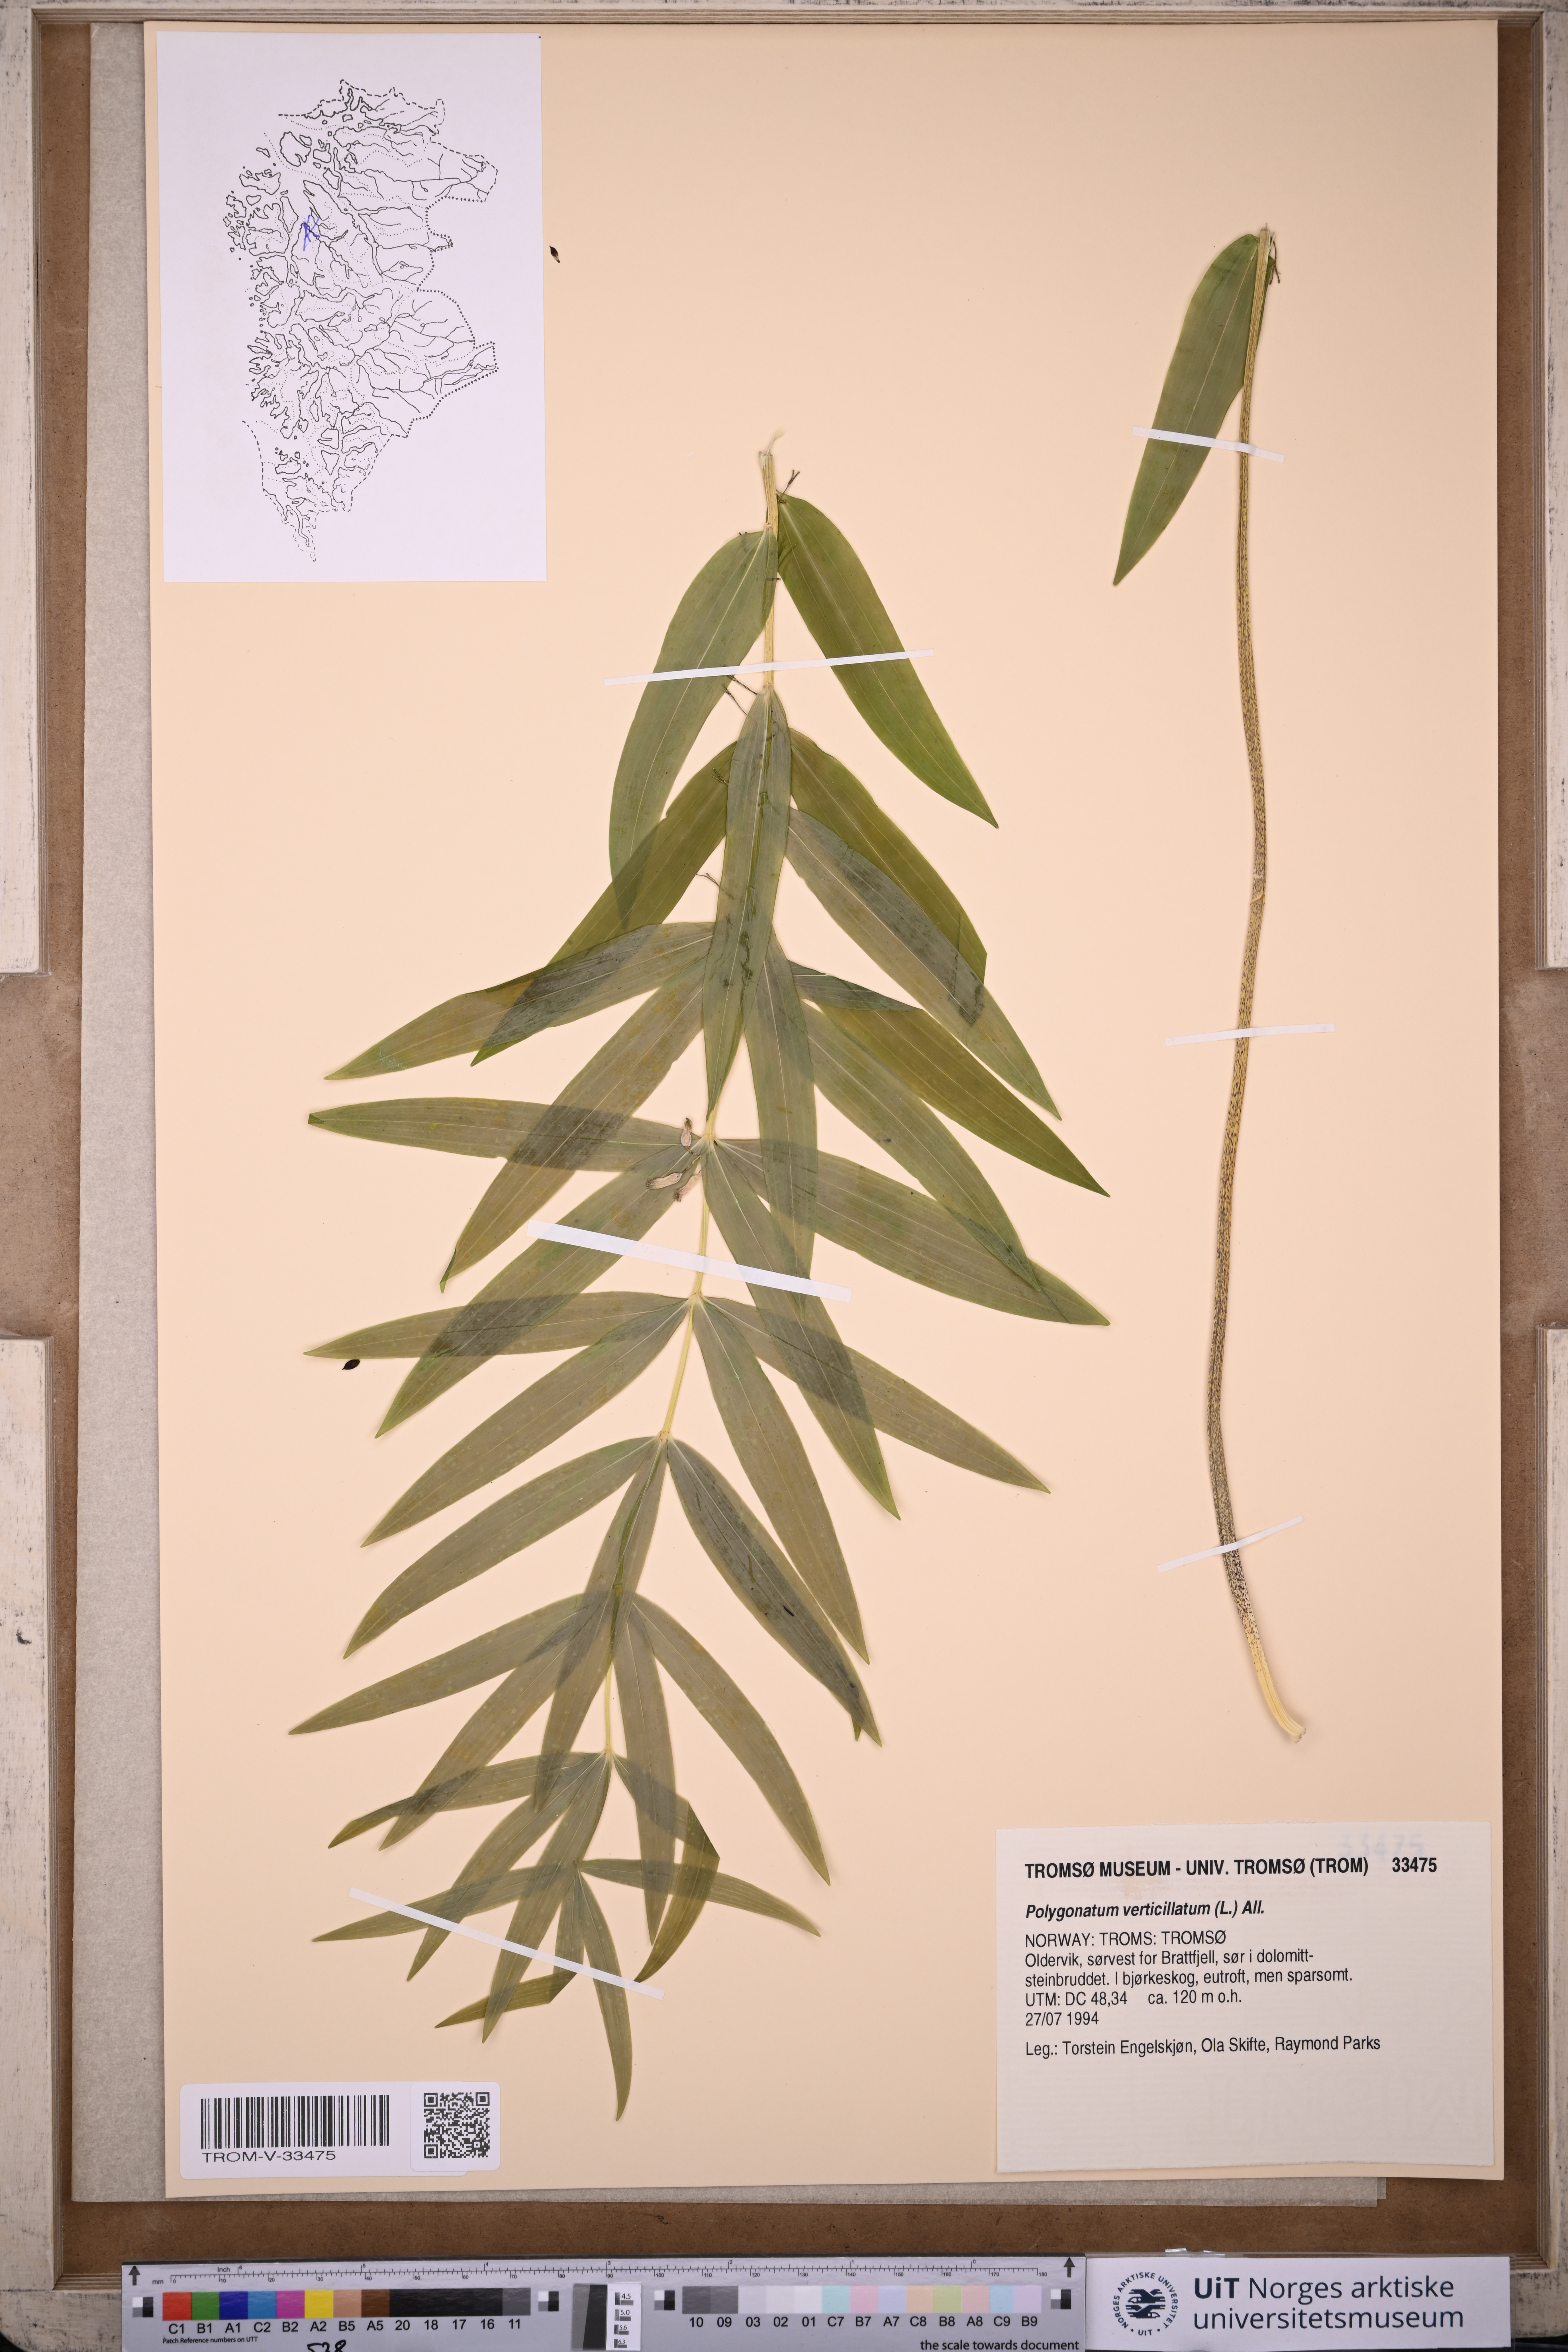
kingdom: Plantae
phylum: Tracheophyta
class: Liliopsida
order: Asparagales
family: Asparagaceae
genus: Polygonatum
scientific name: Polygonatum verticillatum
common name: Whorled solomon's-seal
